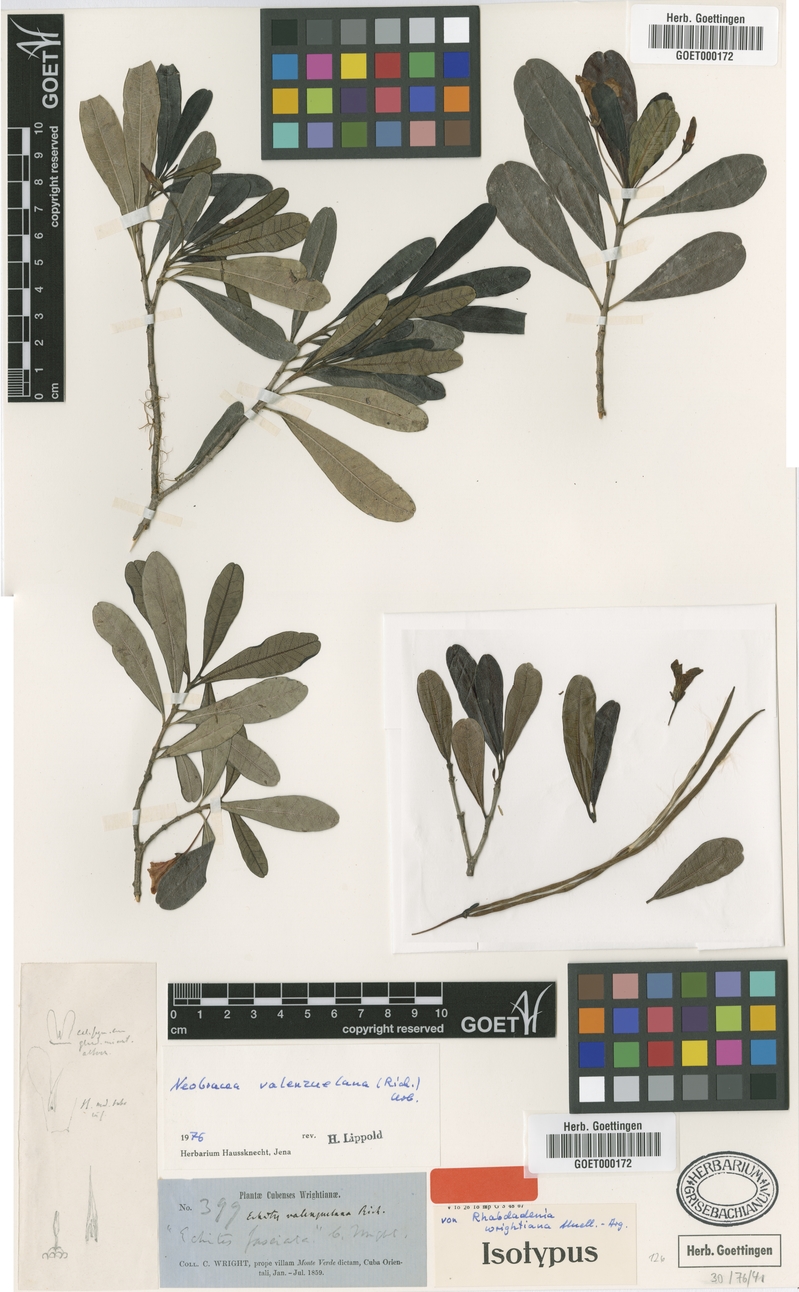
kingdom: Plantae
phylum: Tracheophyta
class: Magnoliopsida
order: Gentianales
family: Apocynaceae
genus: Neobracea
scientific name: Neobracea valenzuelana
